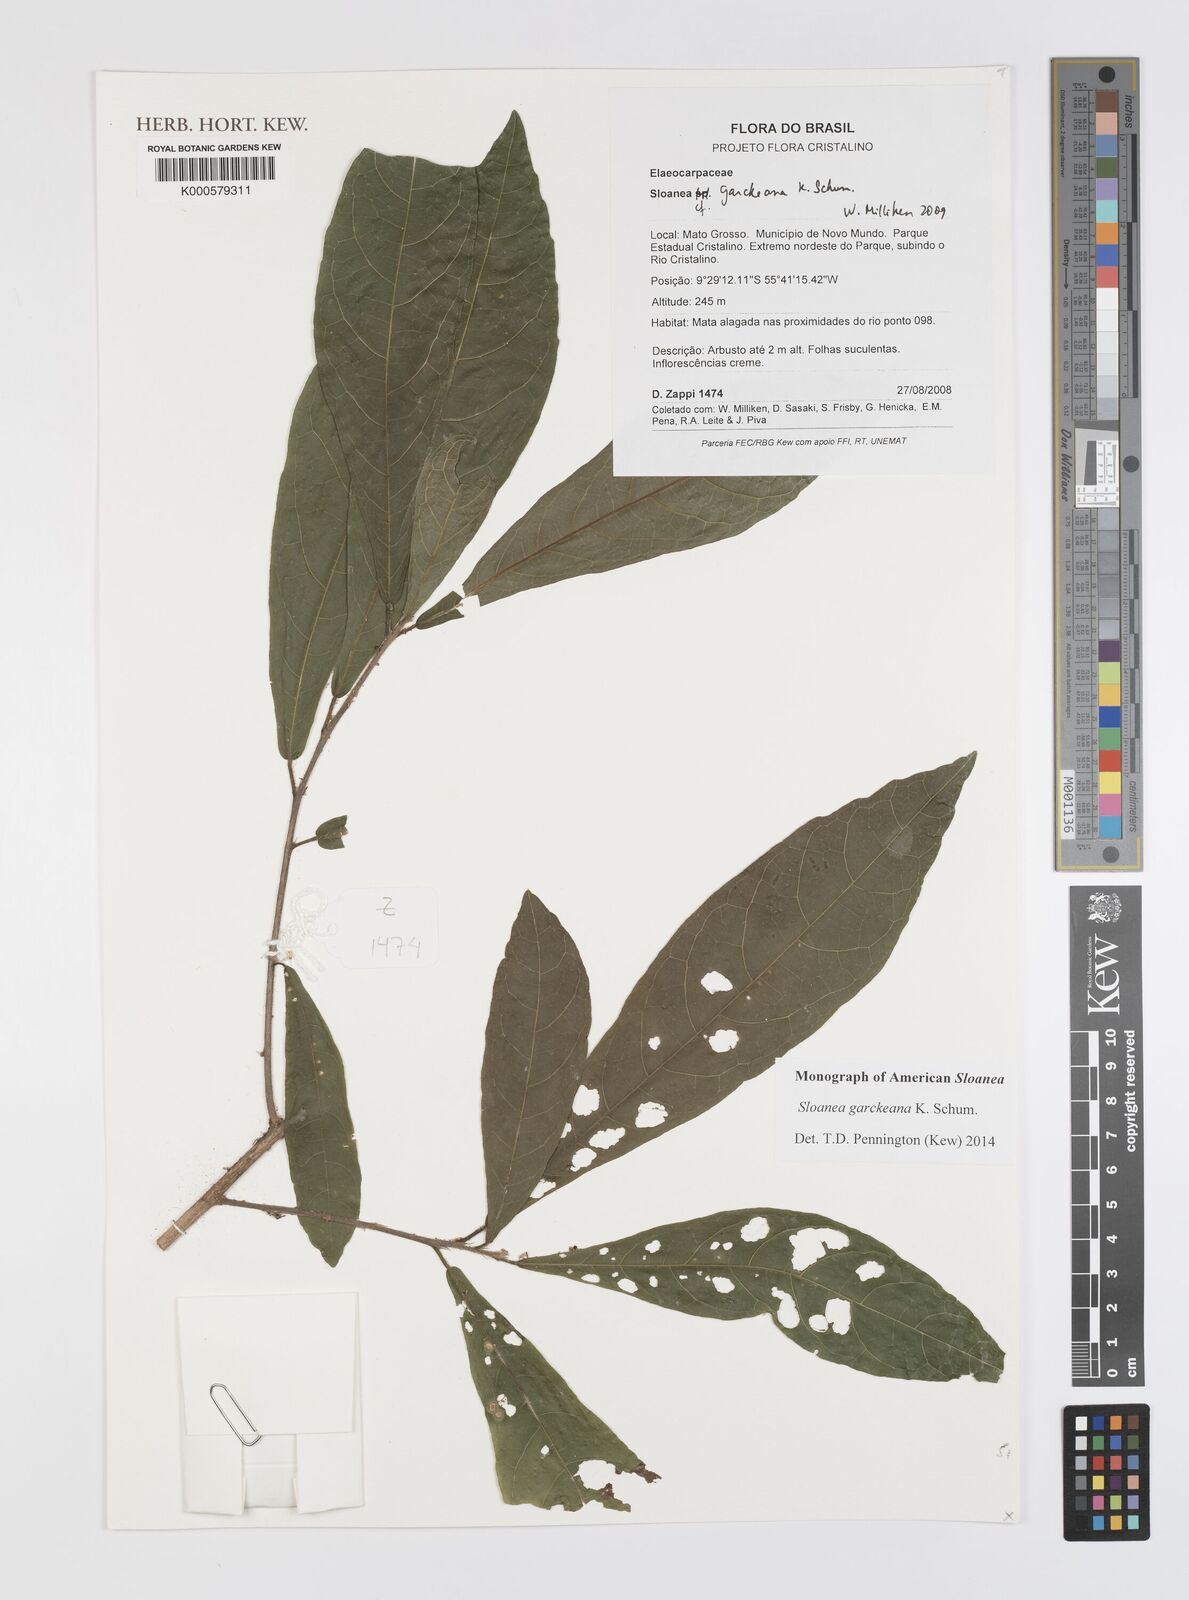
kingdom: Plantae
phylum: Tracheophyta
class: Magnoliopsida
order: Oxalidales
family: Elaeocarpaceae
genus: Sloanea
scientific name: Sloanea garckeana
